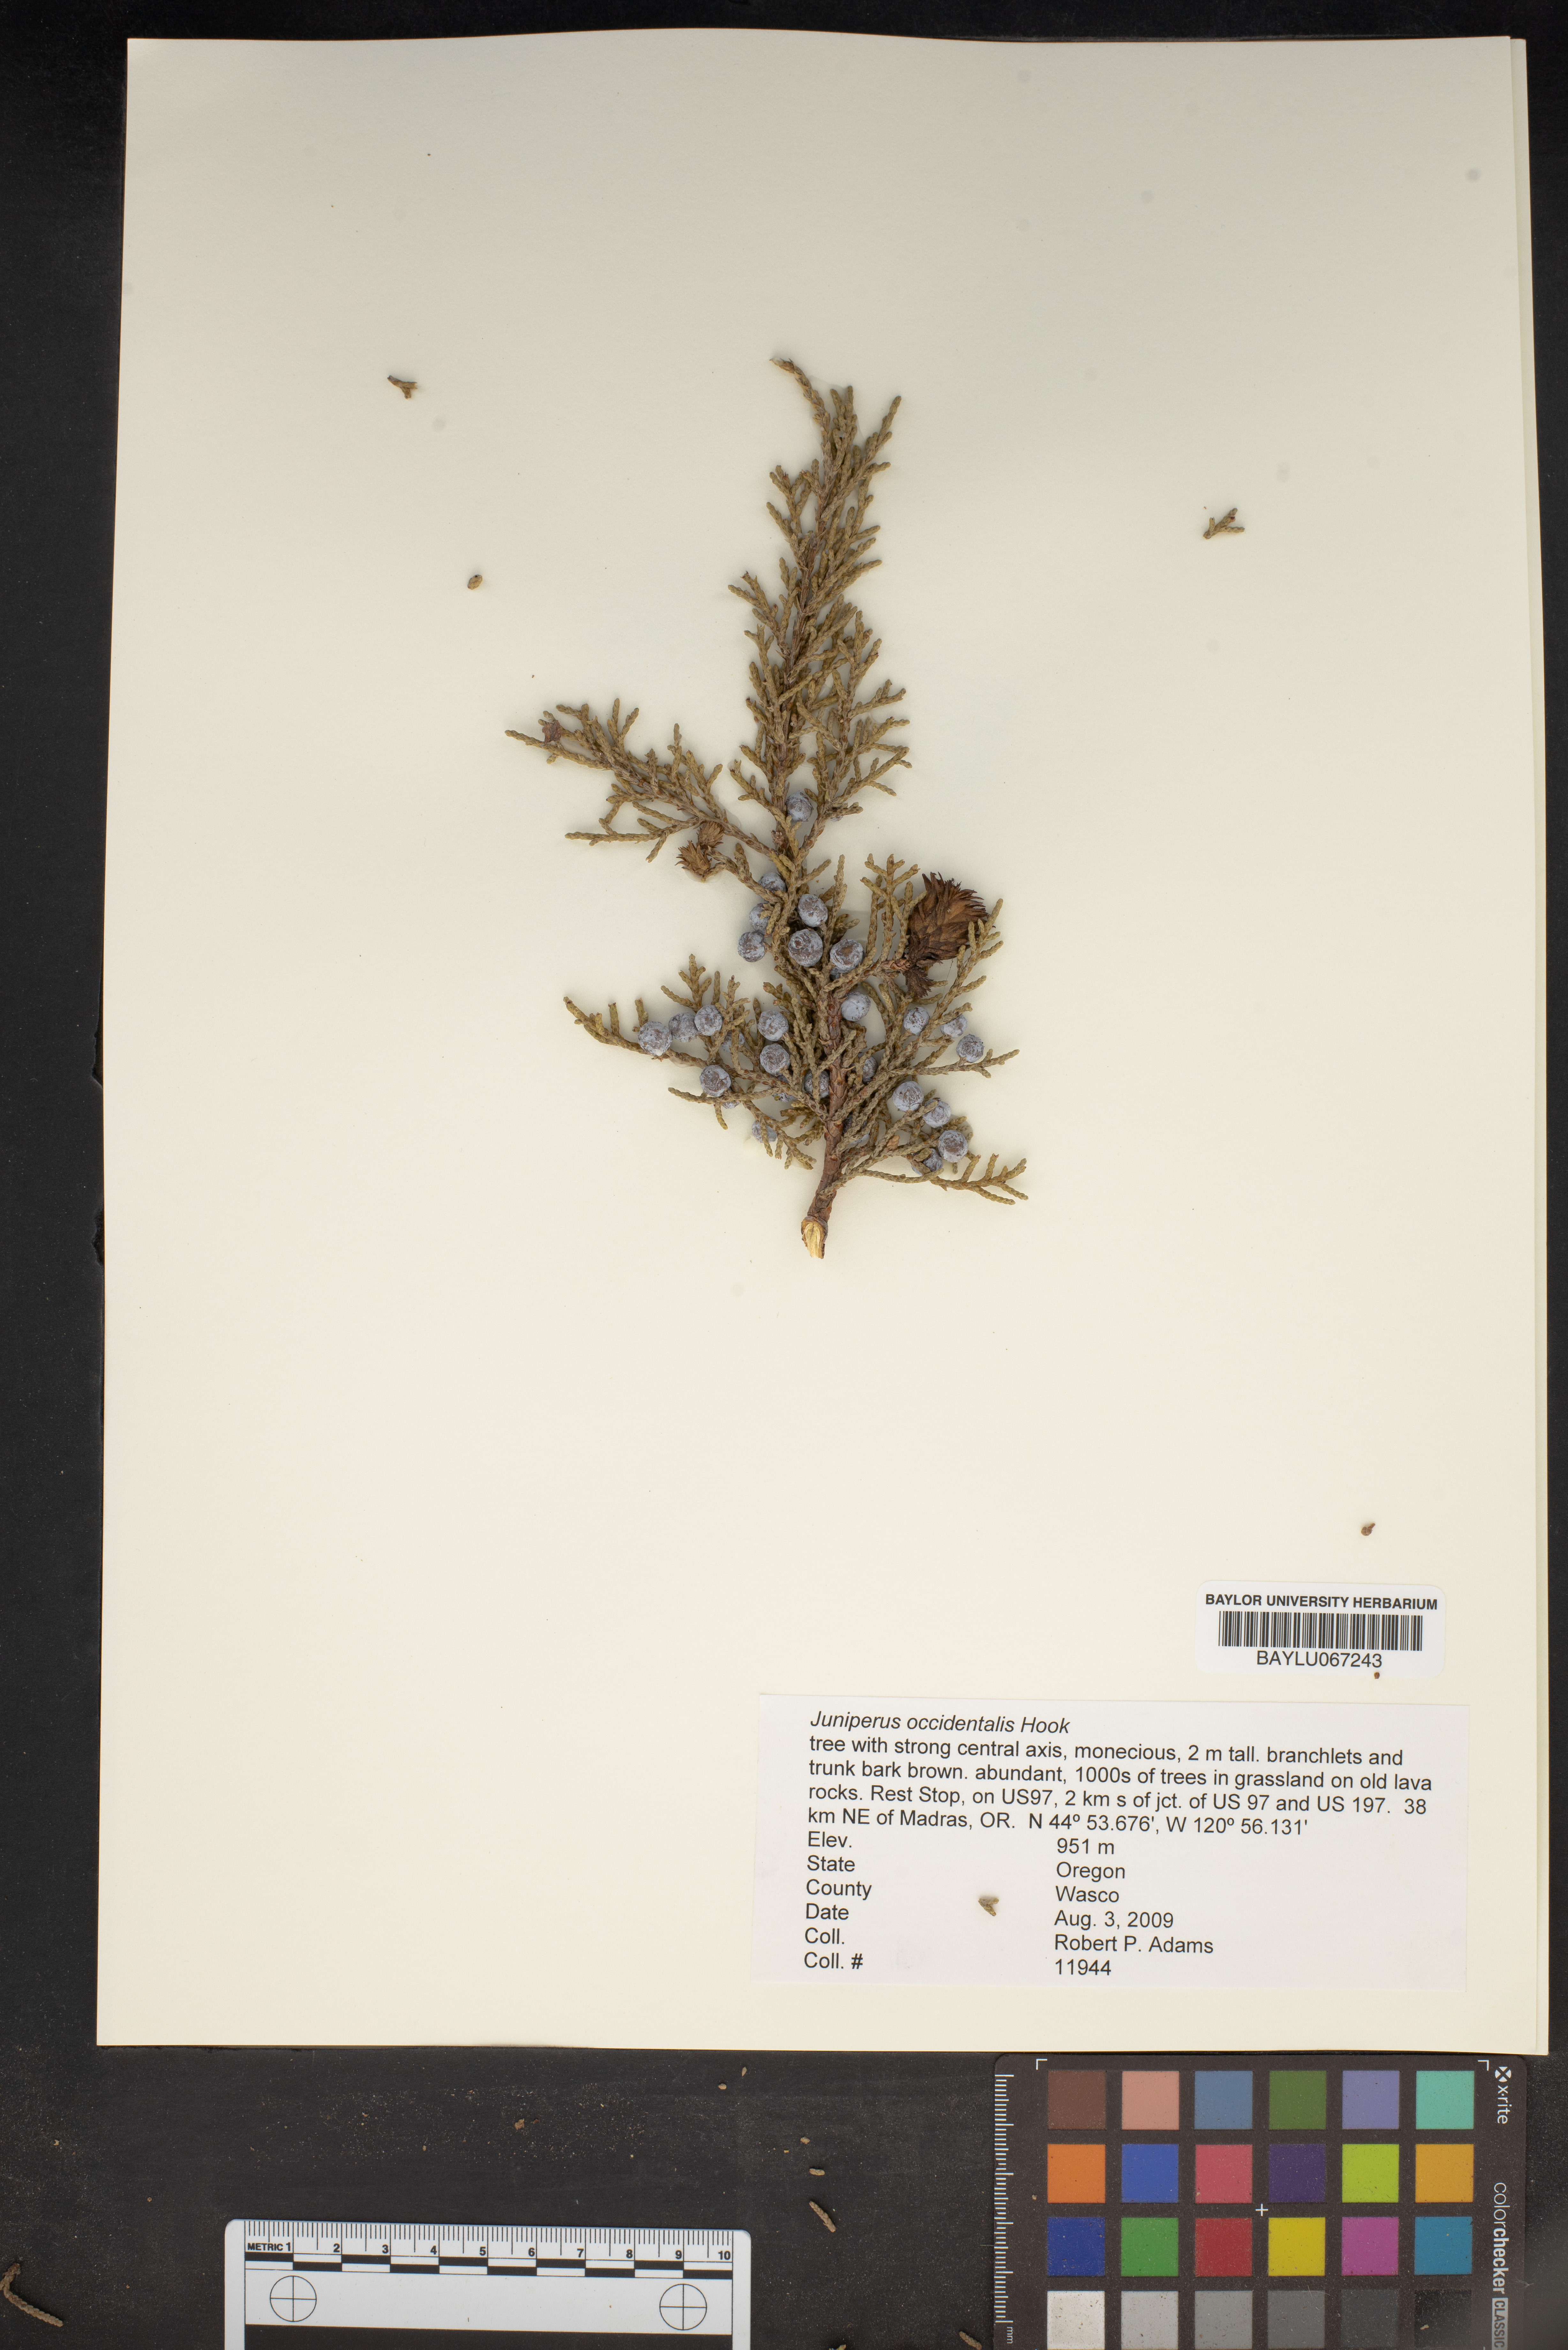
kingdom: Plantae
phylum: Tracheophyta
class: Pinopsida
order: Pinales
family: Cupressaceae
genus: Juniperus
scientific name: Juniperus occidentalis
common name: Western juniper
